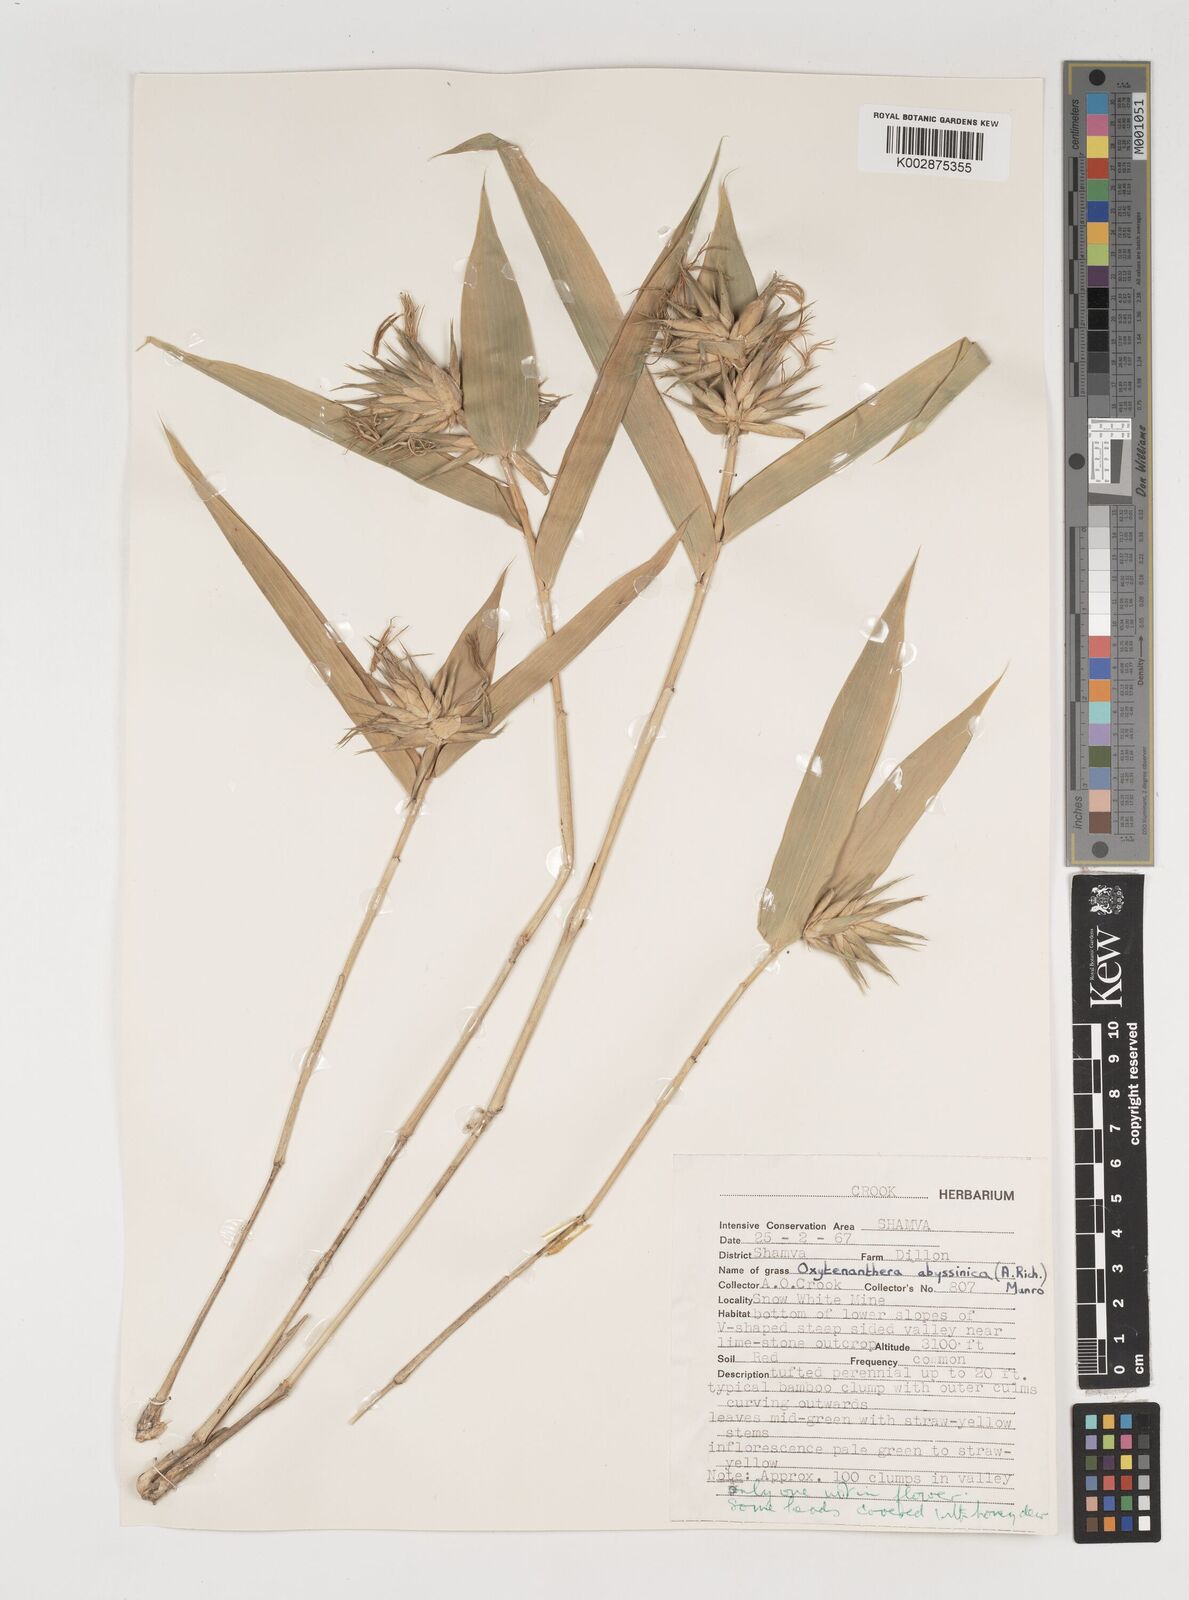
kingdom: Plantae
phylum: Tracheophyta
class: Liliopsida
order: Poales
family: Poaceae
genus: Oxytenanthera
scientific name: Oxytenanthera abyssinica
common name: Wine bamboo
